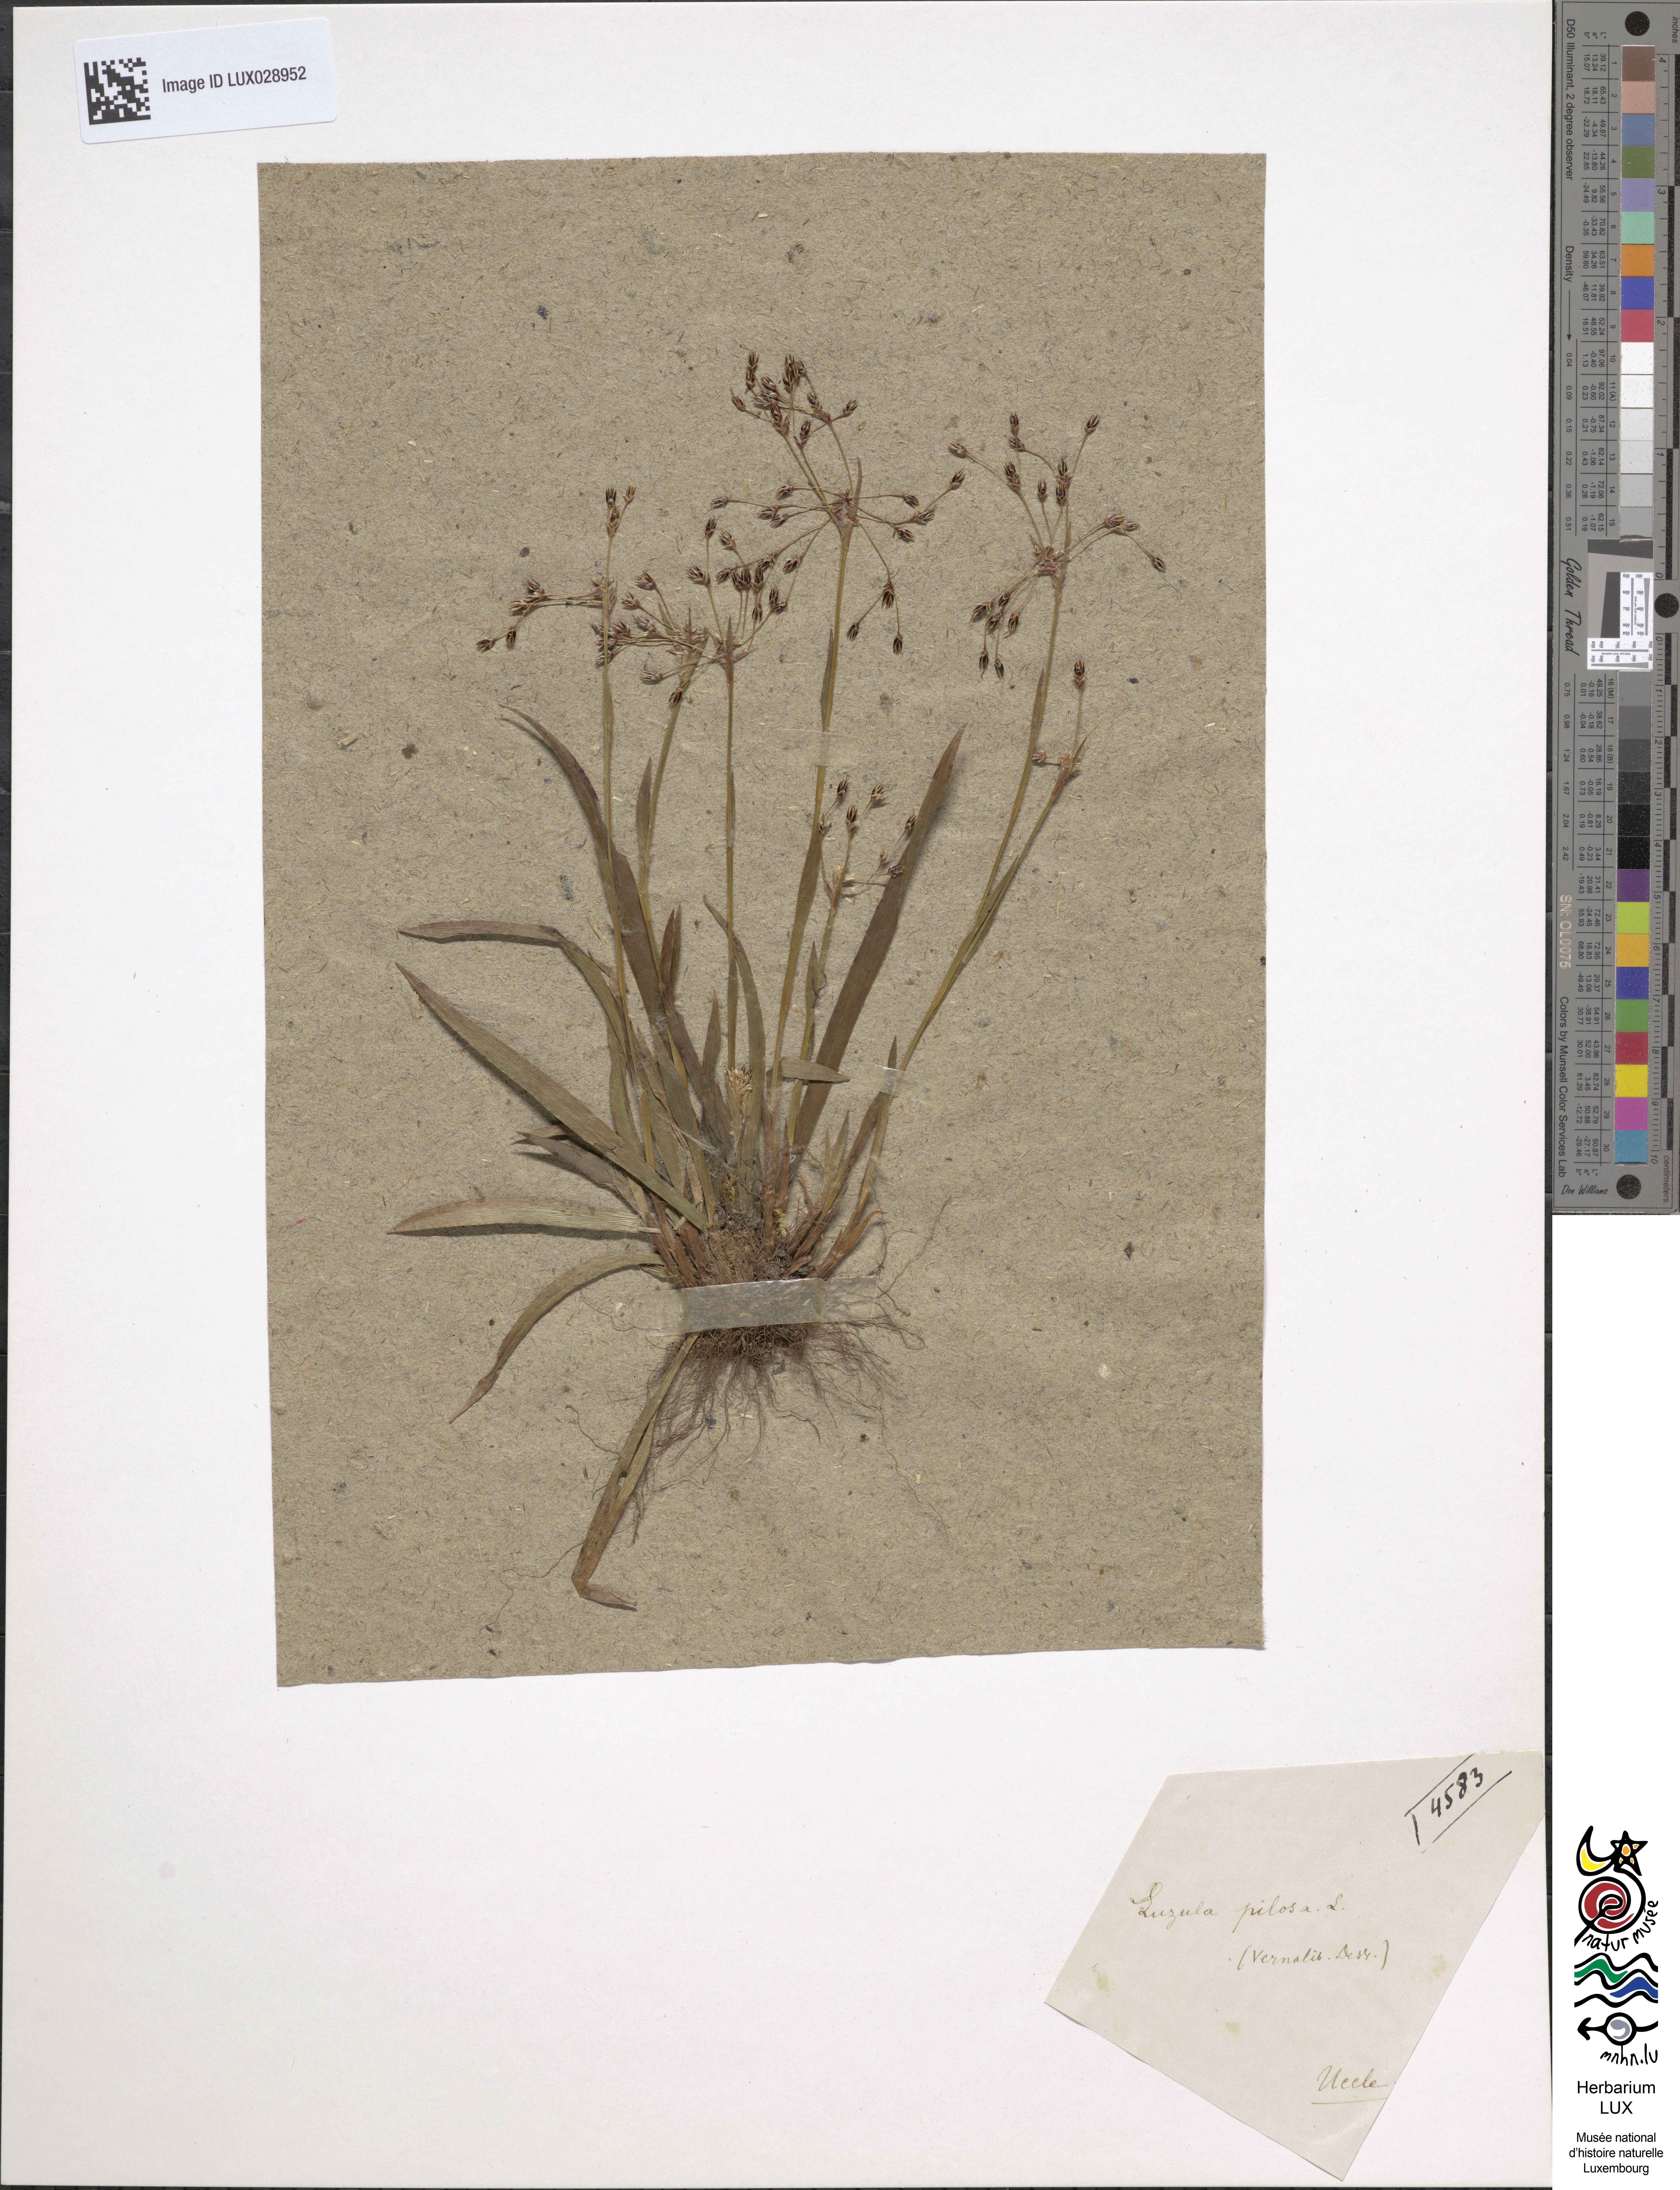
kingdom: Plantae
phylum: Tracheophyta
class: Liliopsida
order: Poales
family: Juncaceae
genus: Luzula
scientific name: Luzula pilosa
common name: Hairy wood-rush
